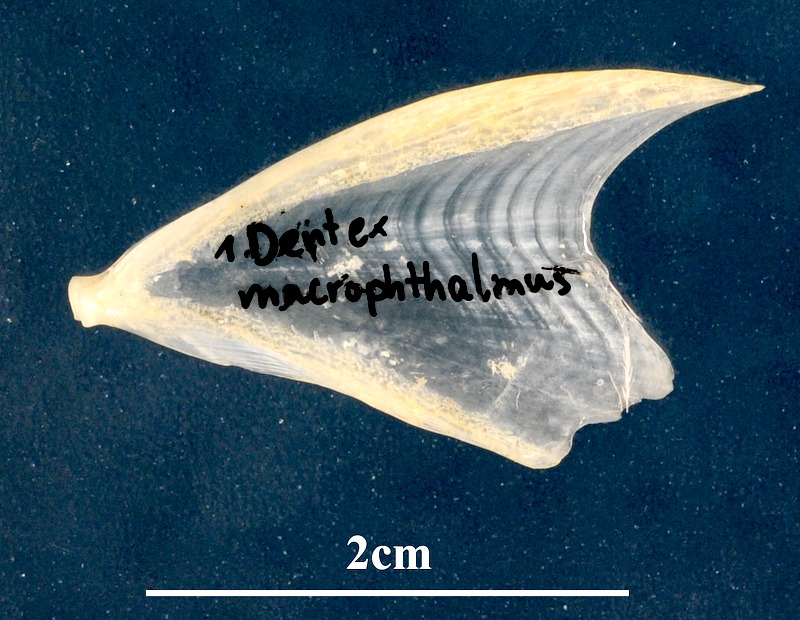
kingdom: Animalia
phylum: Chordata
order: Perciformes
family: Sparidae
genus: Dentex
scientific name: Dentex macrophthalmus
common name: Large-eyed dentex
